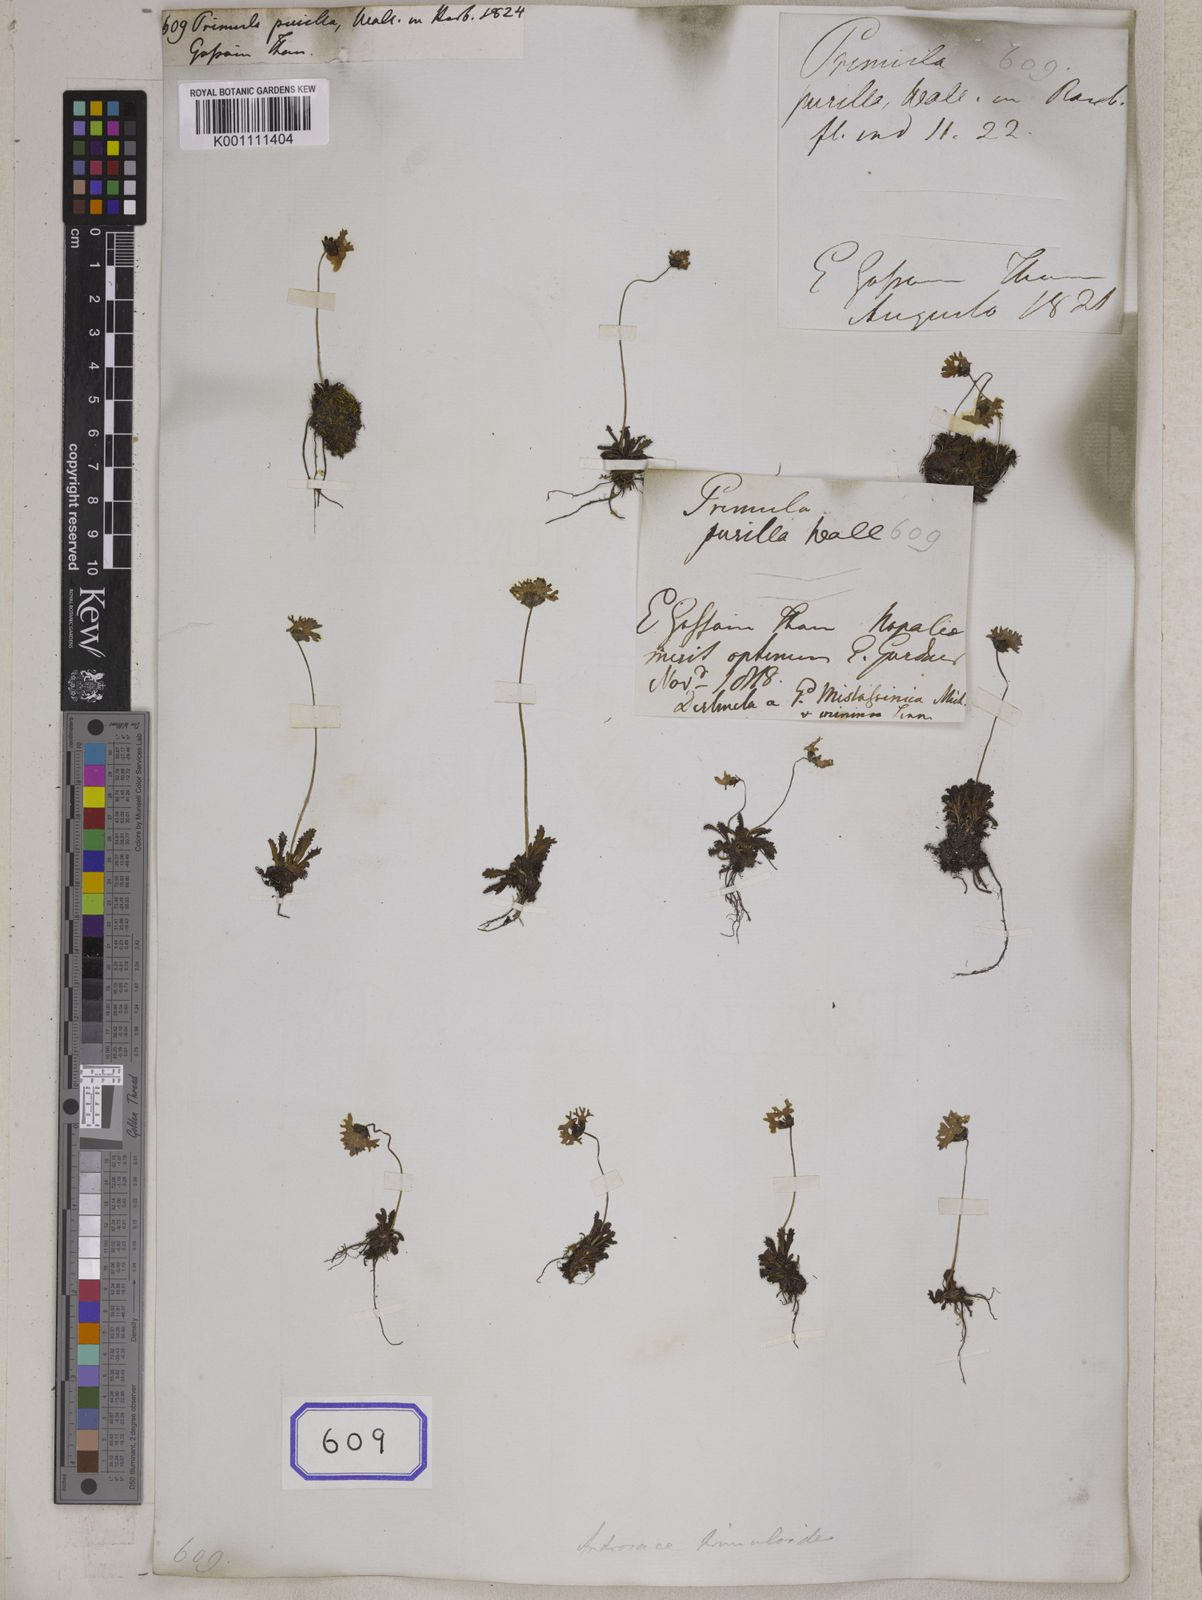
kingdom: Plantae
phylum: Tracheophyta
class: Magnoliopsida
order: Ericales
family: Primulaceae
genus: Primula
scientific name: Primula primulina
